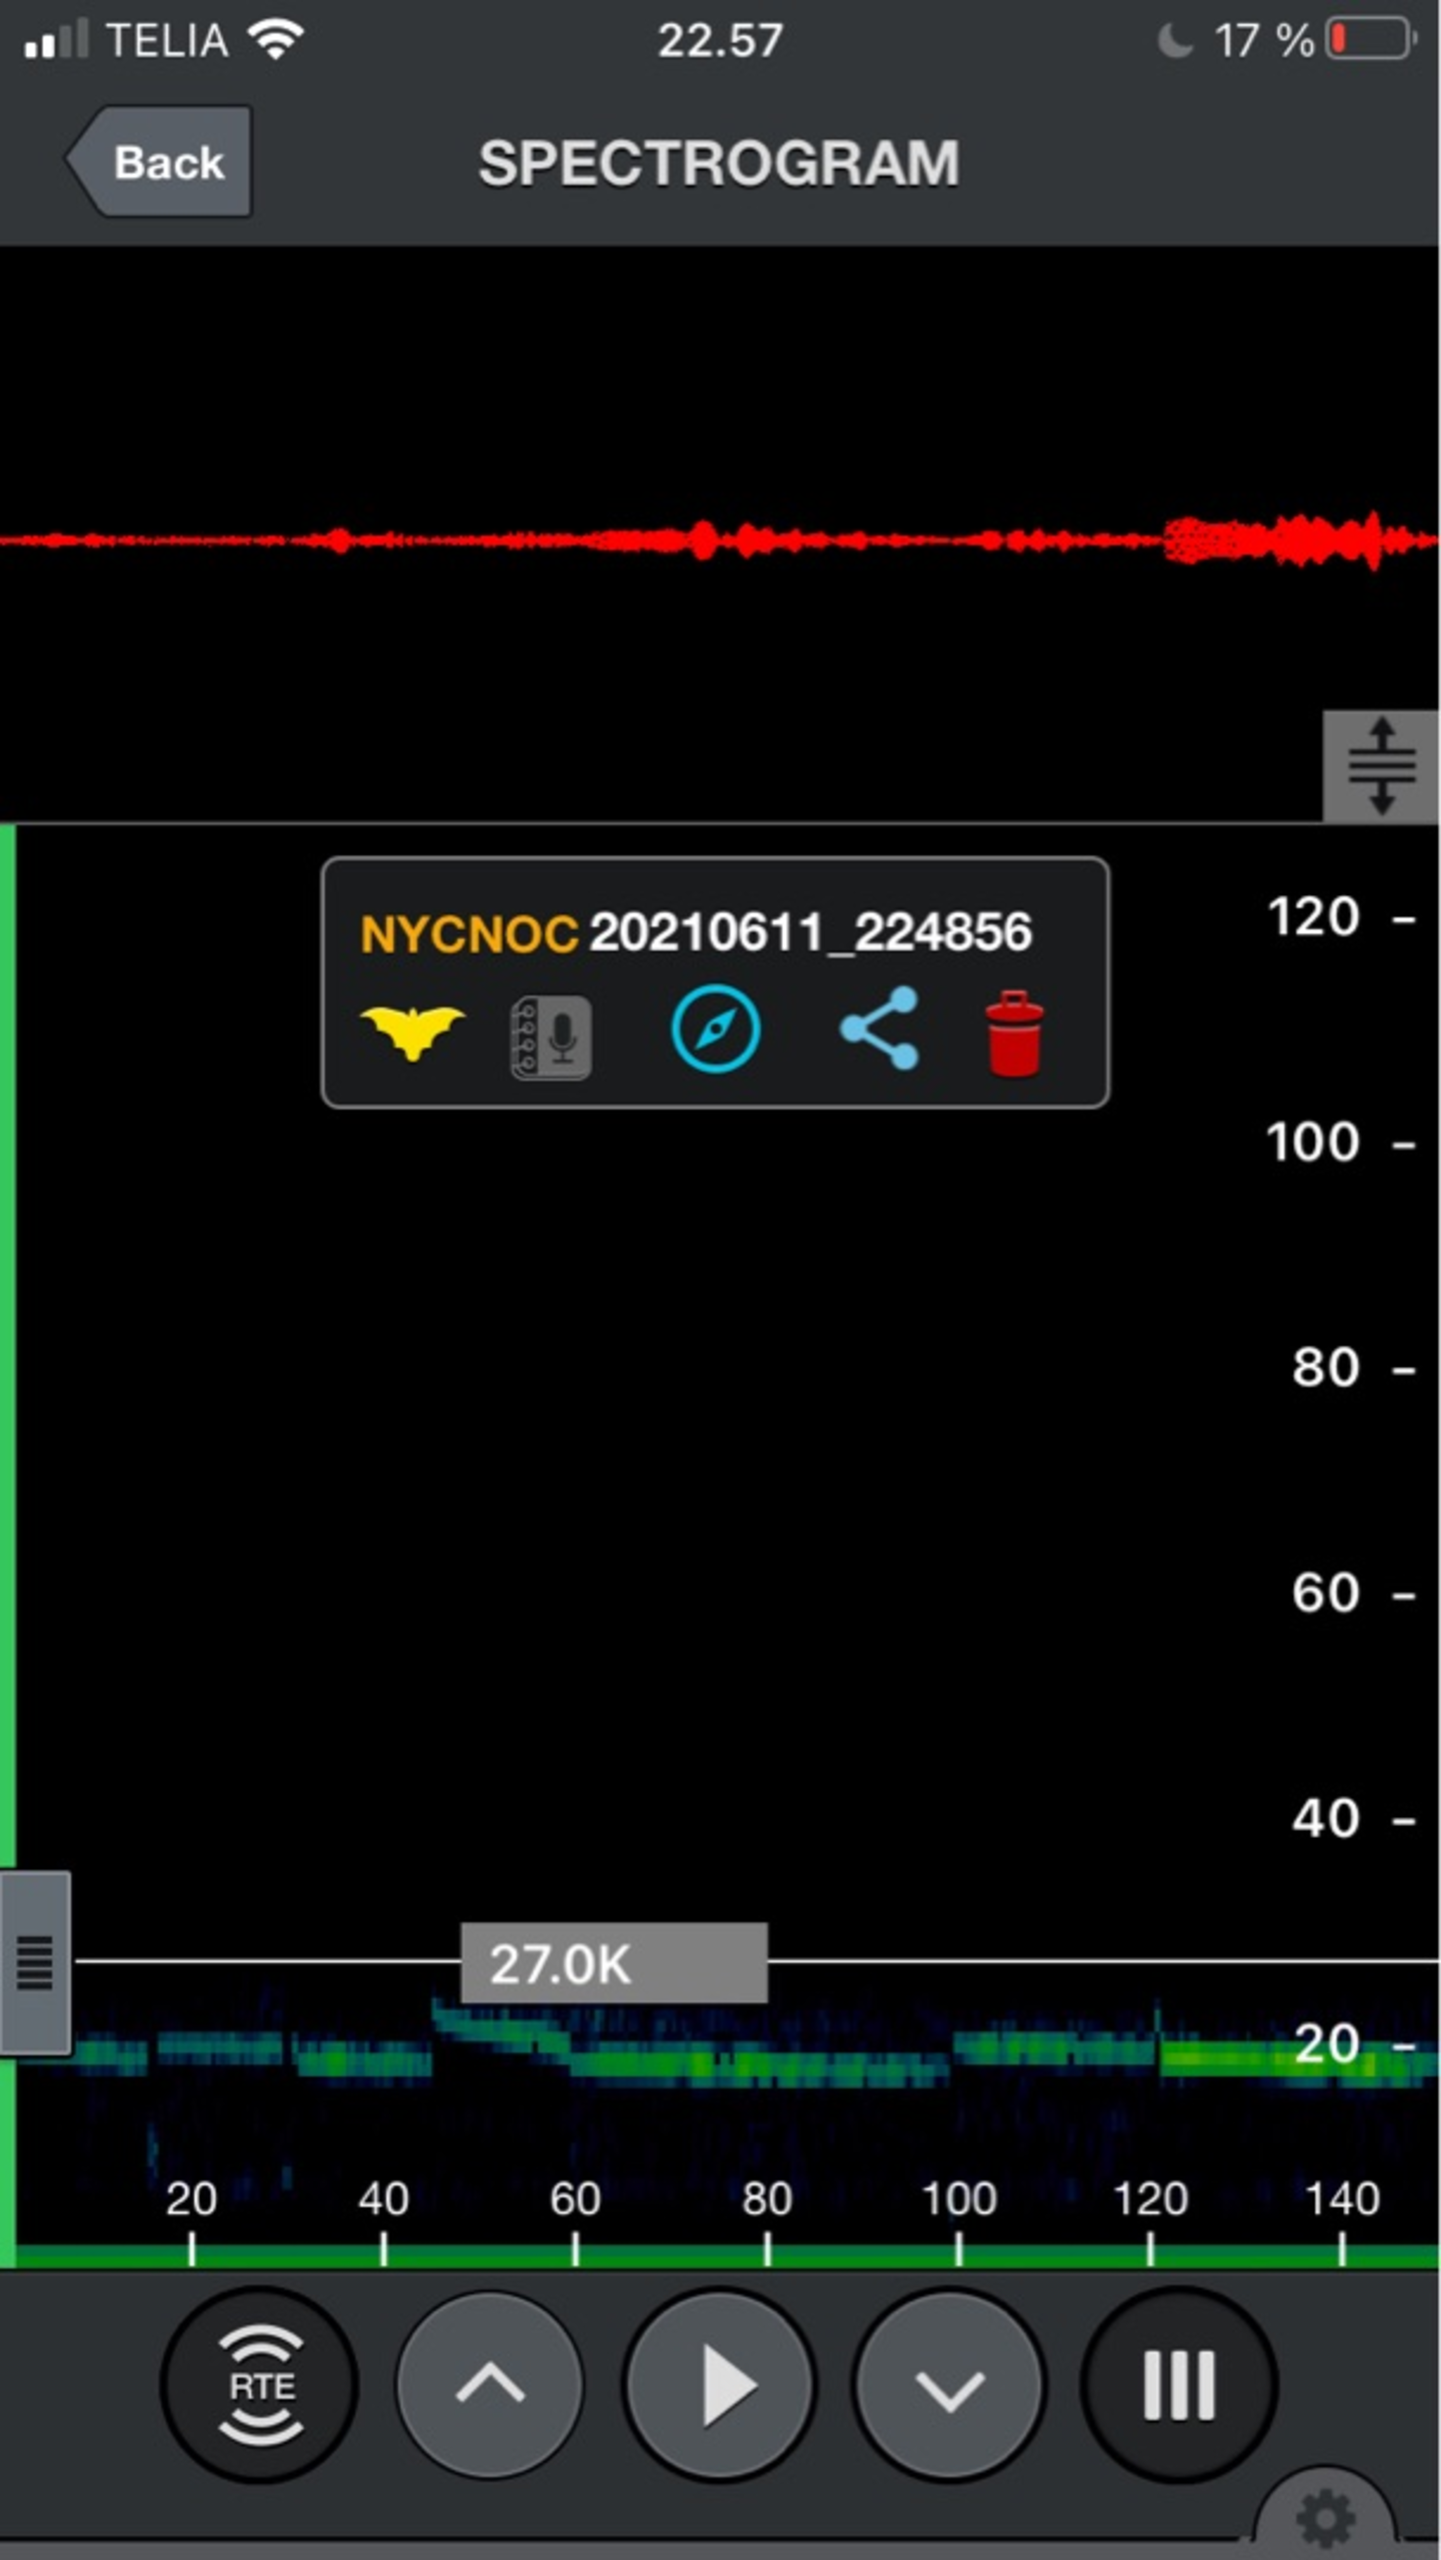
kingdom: Animalia
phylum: Chordata
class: Mammalia
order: Chiroptera
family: Vespertilionidae
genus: Nyctalus
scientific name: Nyctalus noctula
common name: Brunflagermus
